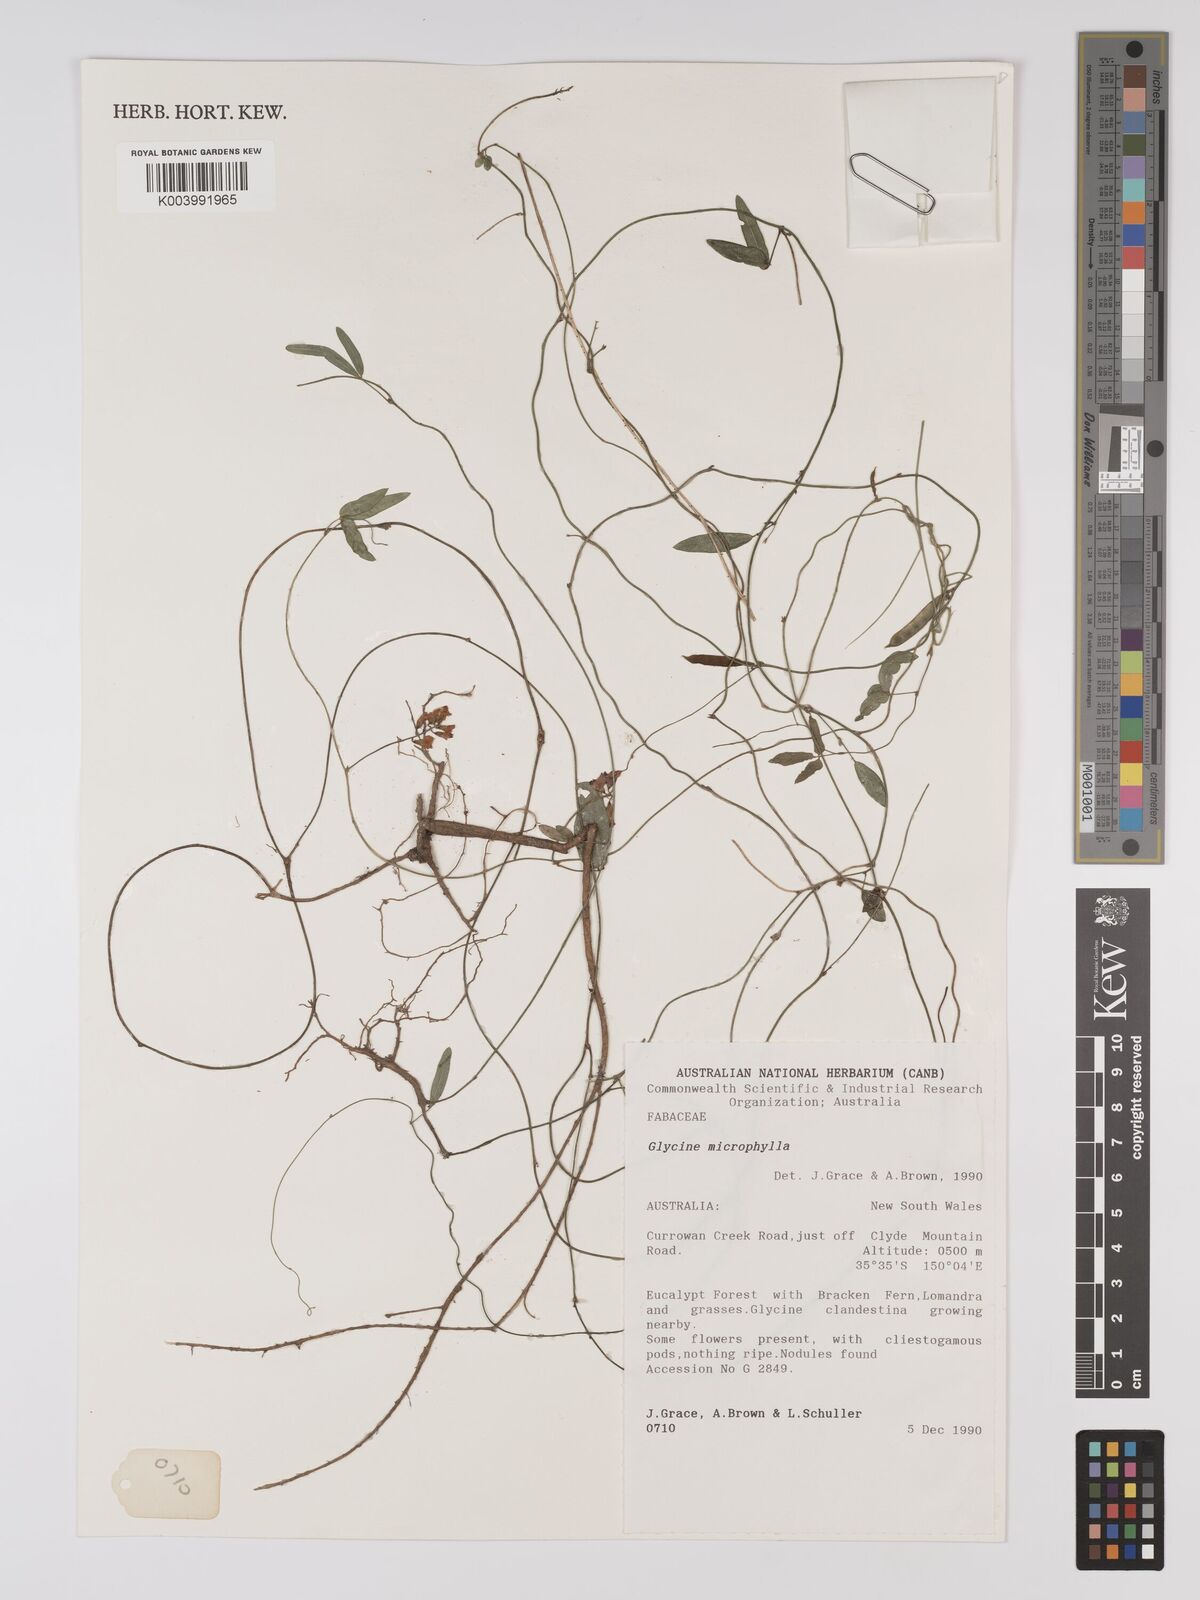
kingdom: Plantae
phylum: Tracheophyta
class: Magnoliopsida
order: Fabales
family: Fabaceae
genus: Glycine
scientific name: Glycine microphylla
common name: Small-leaf glycine
